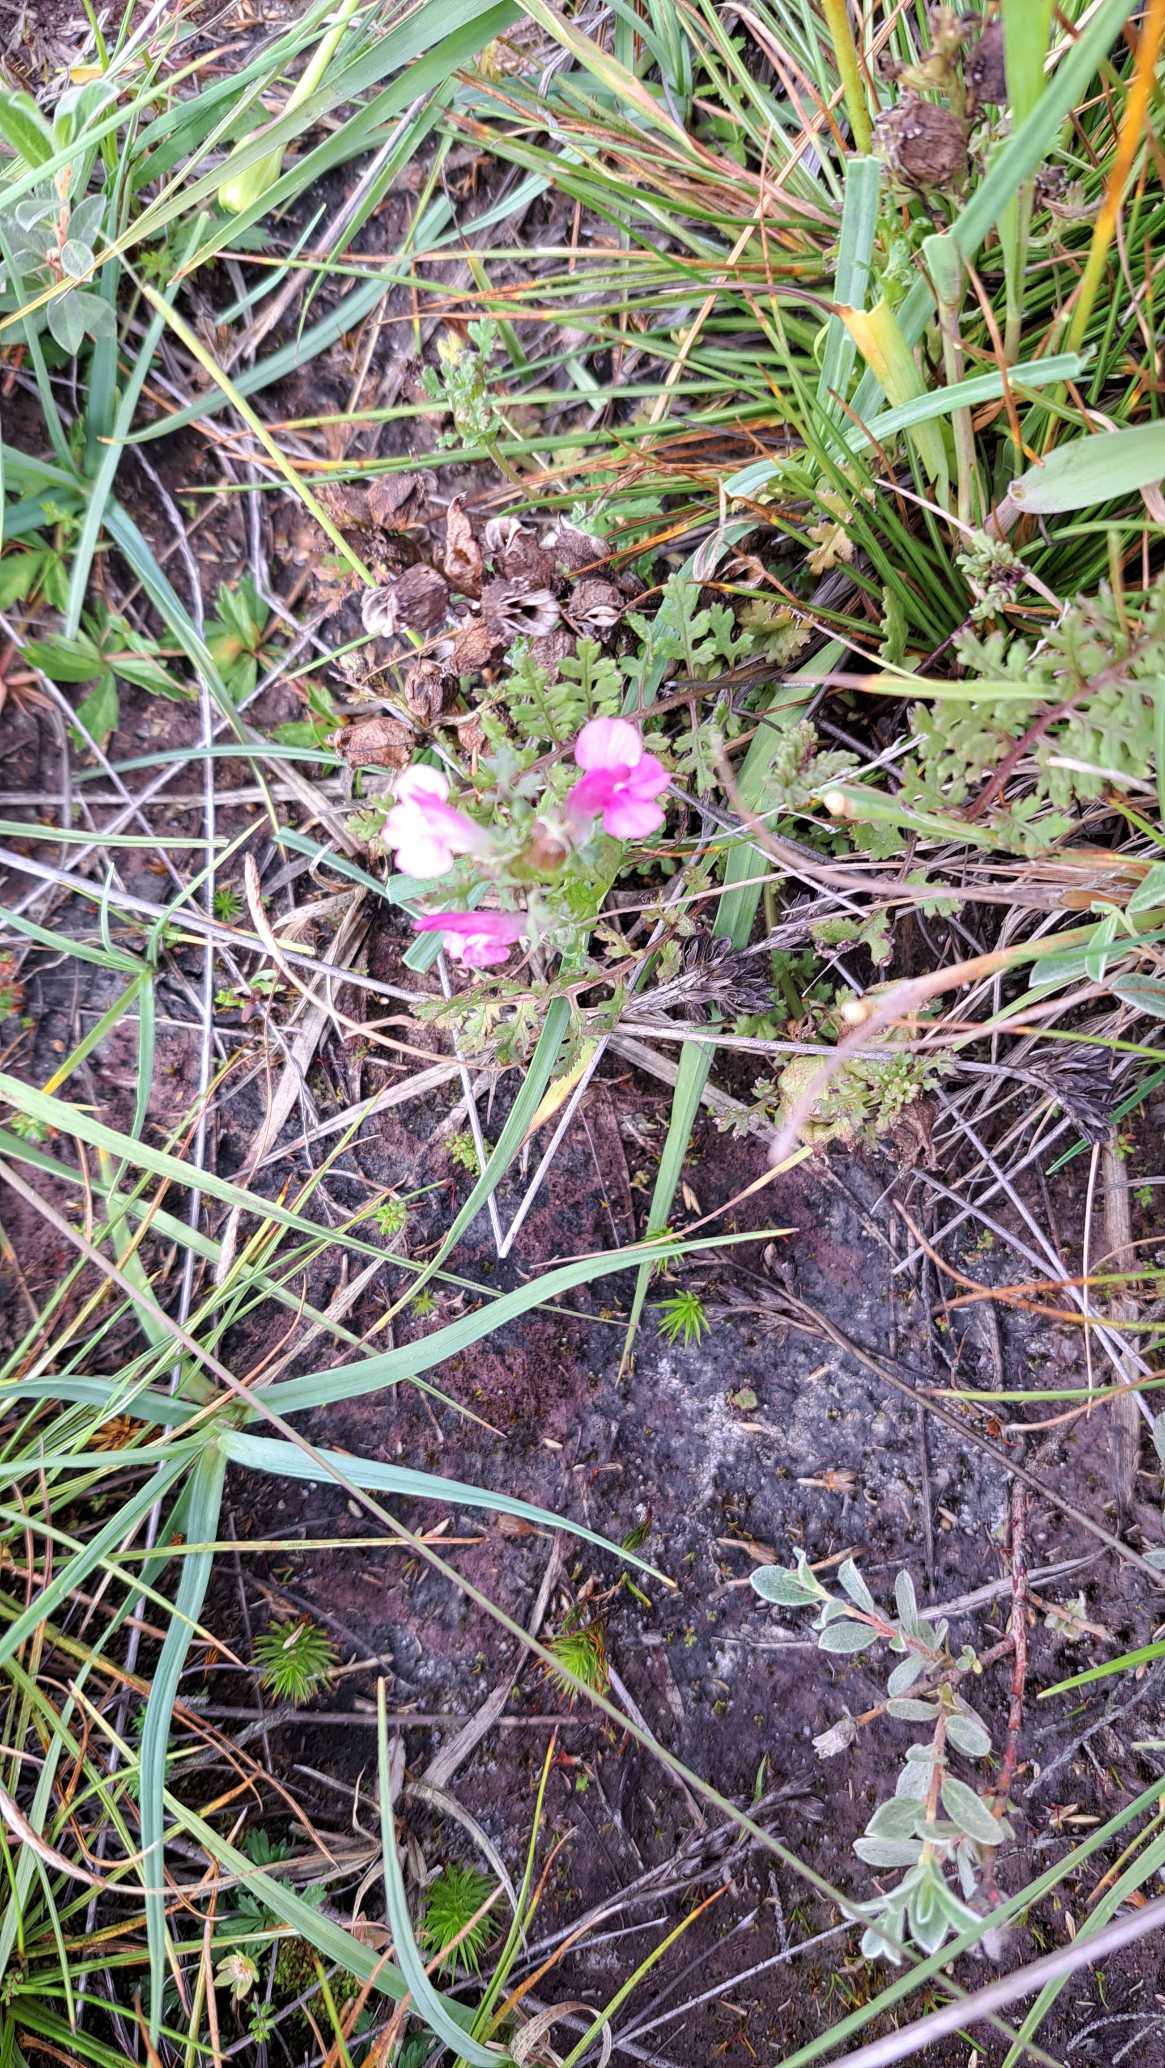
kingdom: Plantae
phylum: Tracheophyta
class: Magnoliopsida
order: Lamiales
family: Orobanchaceae
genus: Pedicularis
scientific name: Pedicularis sylvatica
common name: Mose-troldurt
